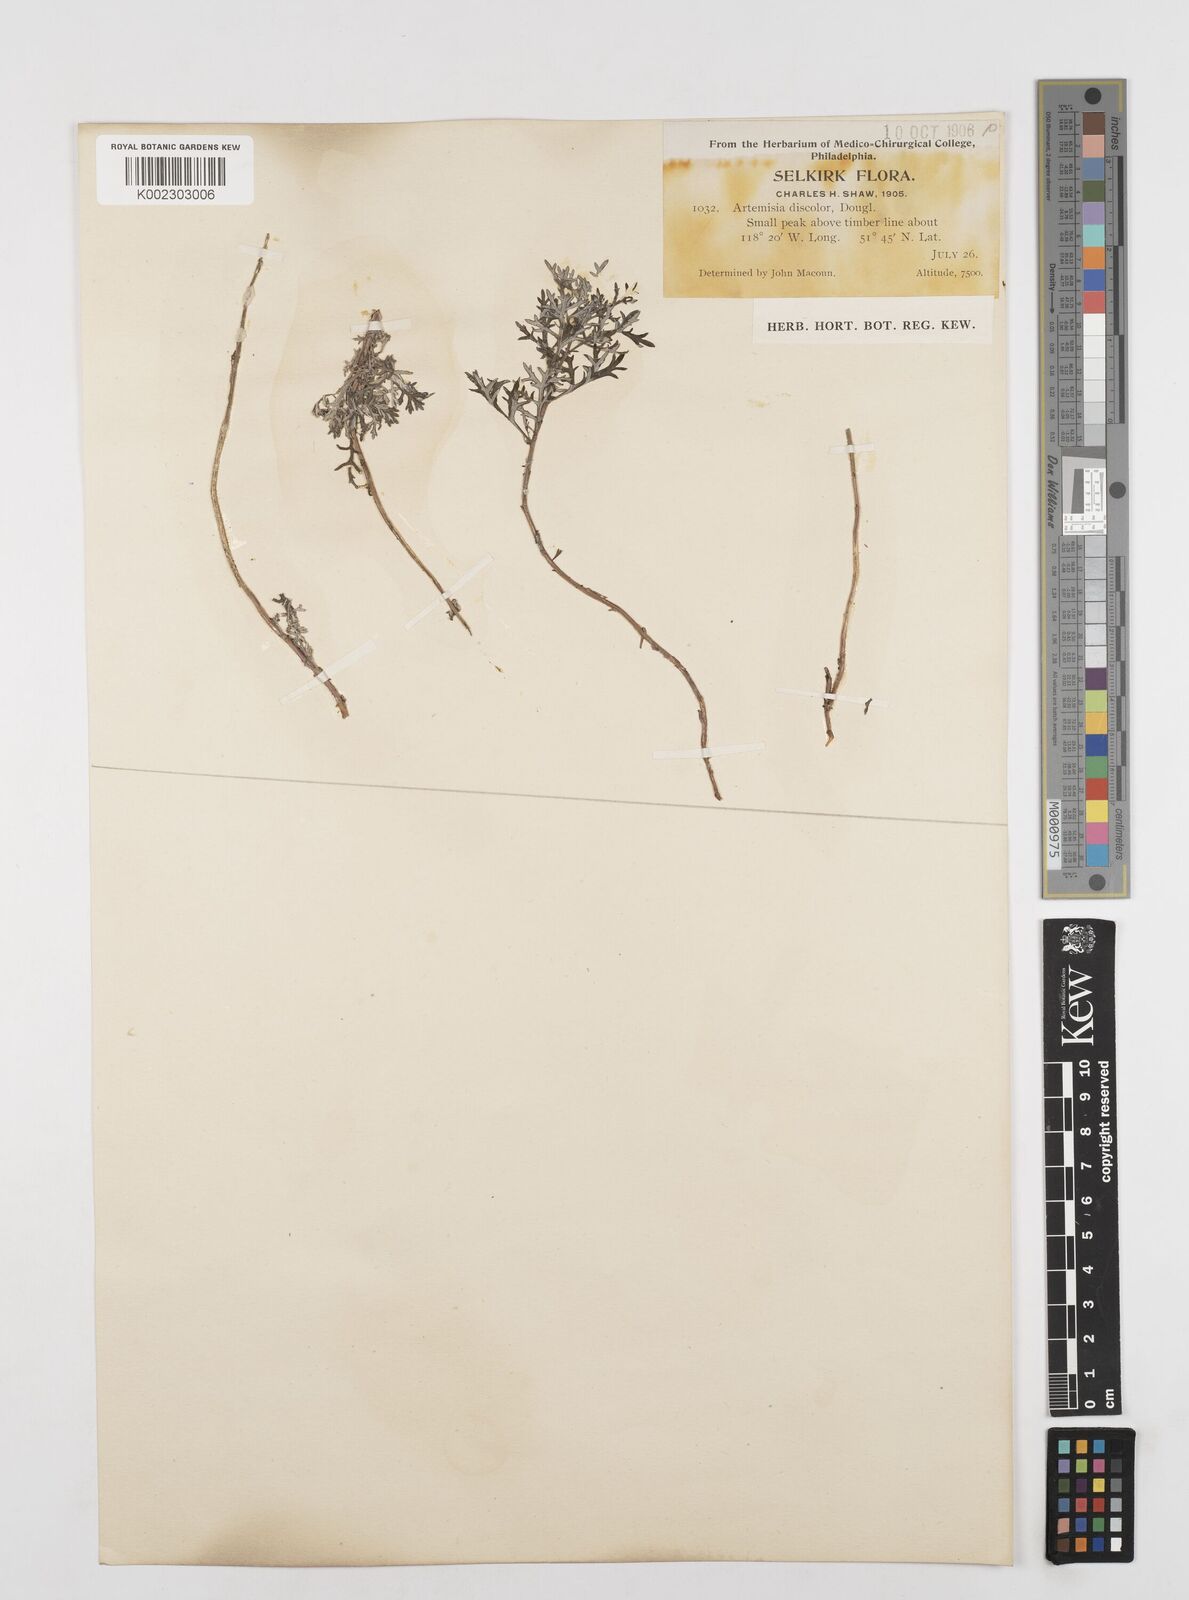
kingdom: Plantae
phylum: Tracheophyta
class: Magnoliopsida
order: Asterales
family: Asteraceae
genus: Artemisia
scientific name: Artemisia michauxiana
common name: Lemon sagewort
